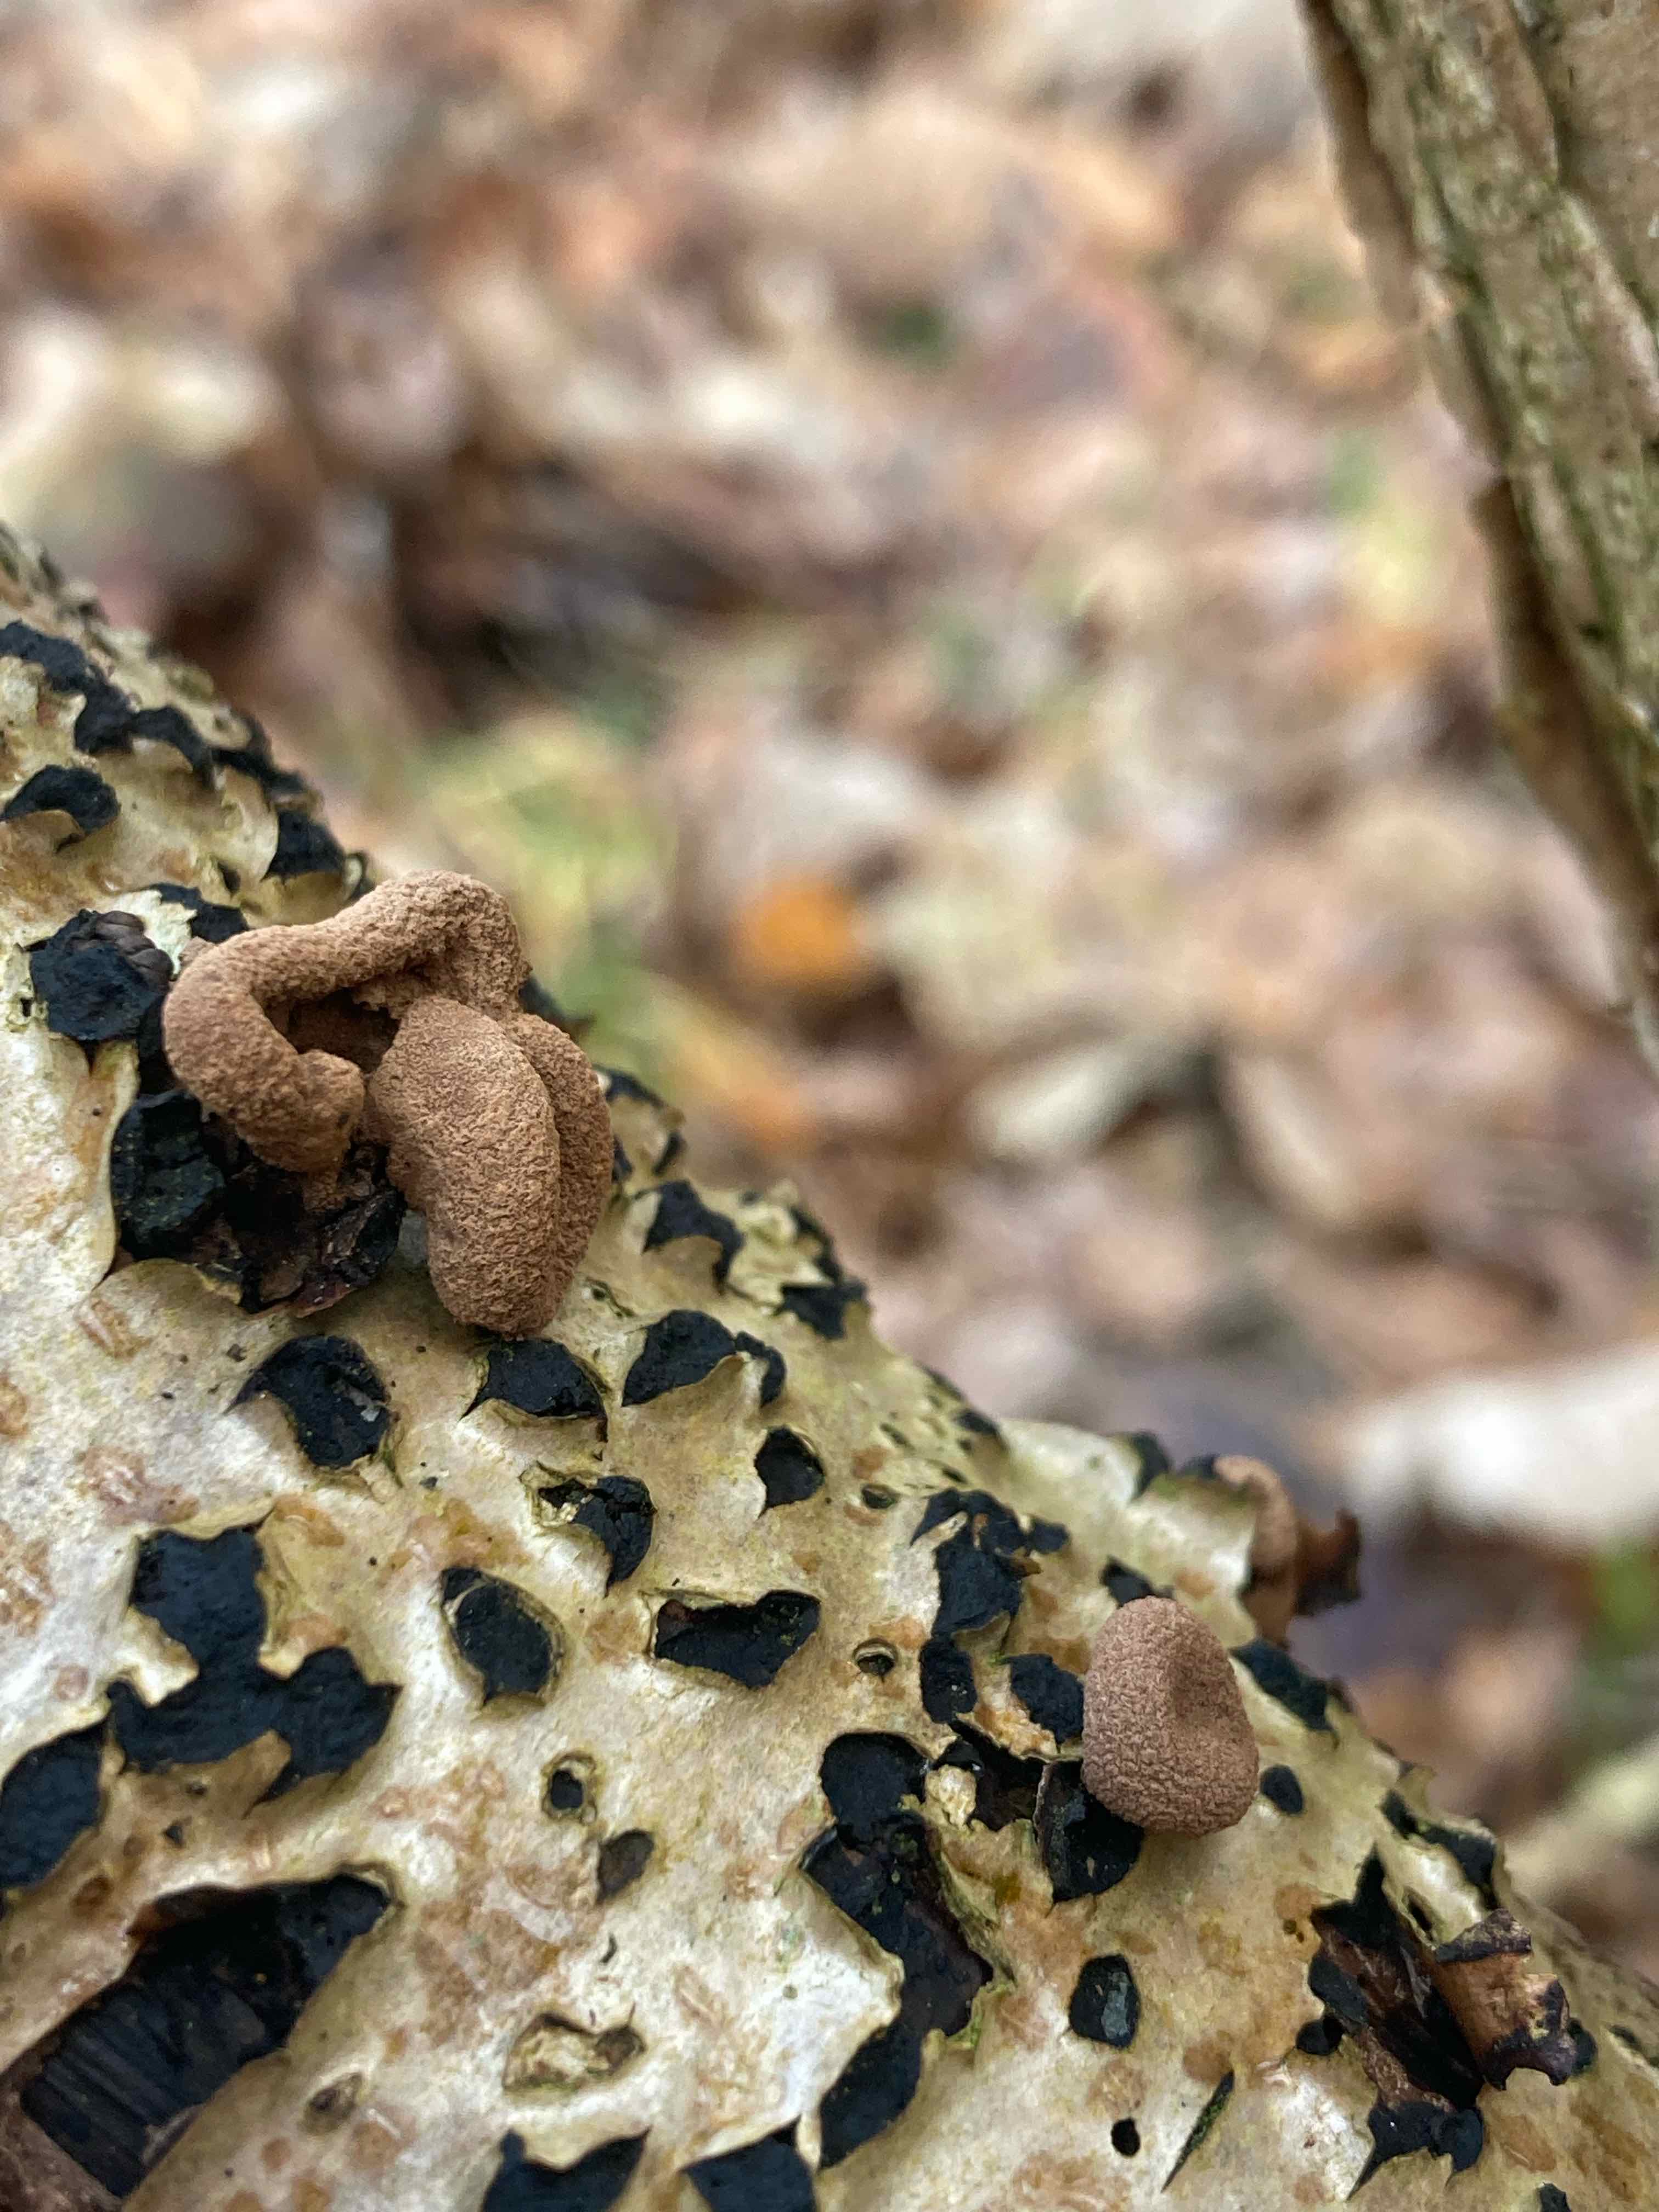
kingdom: Fungi
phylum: Ascomycota
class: Leotiomycetes
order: Helotiales
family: Cenangiaceae
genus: Encoelia
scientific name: Encoelia furfuracea
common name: hassel-læderskive
